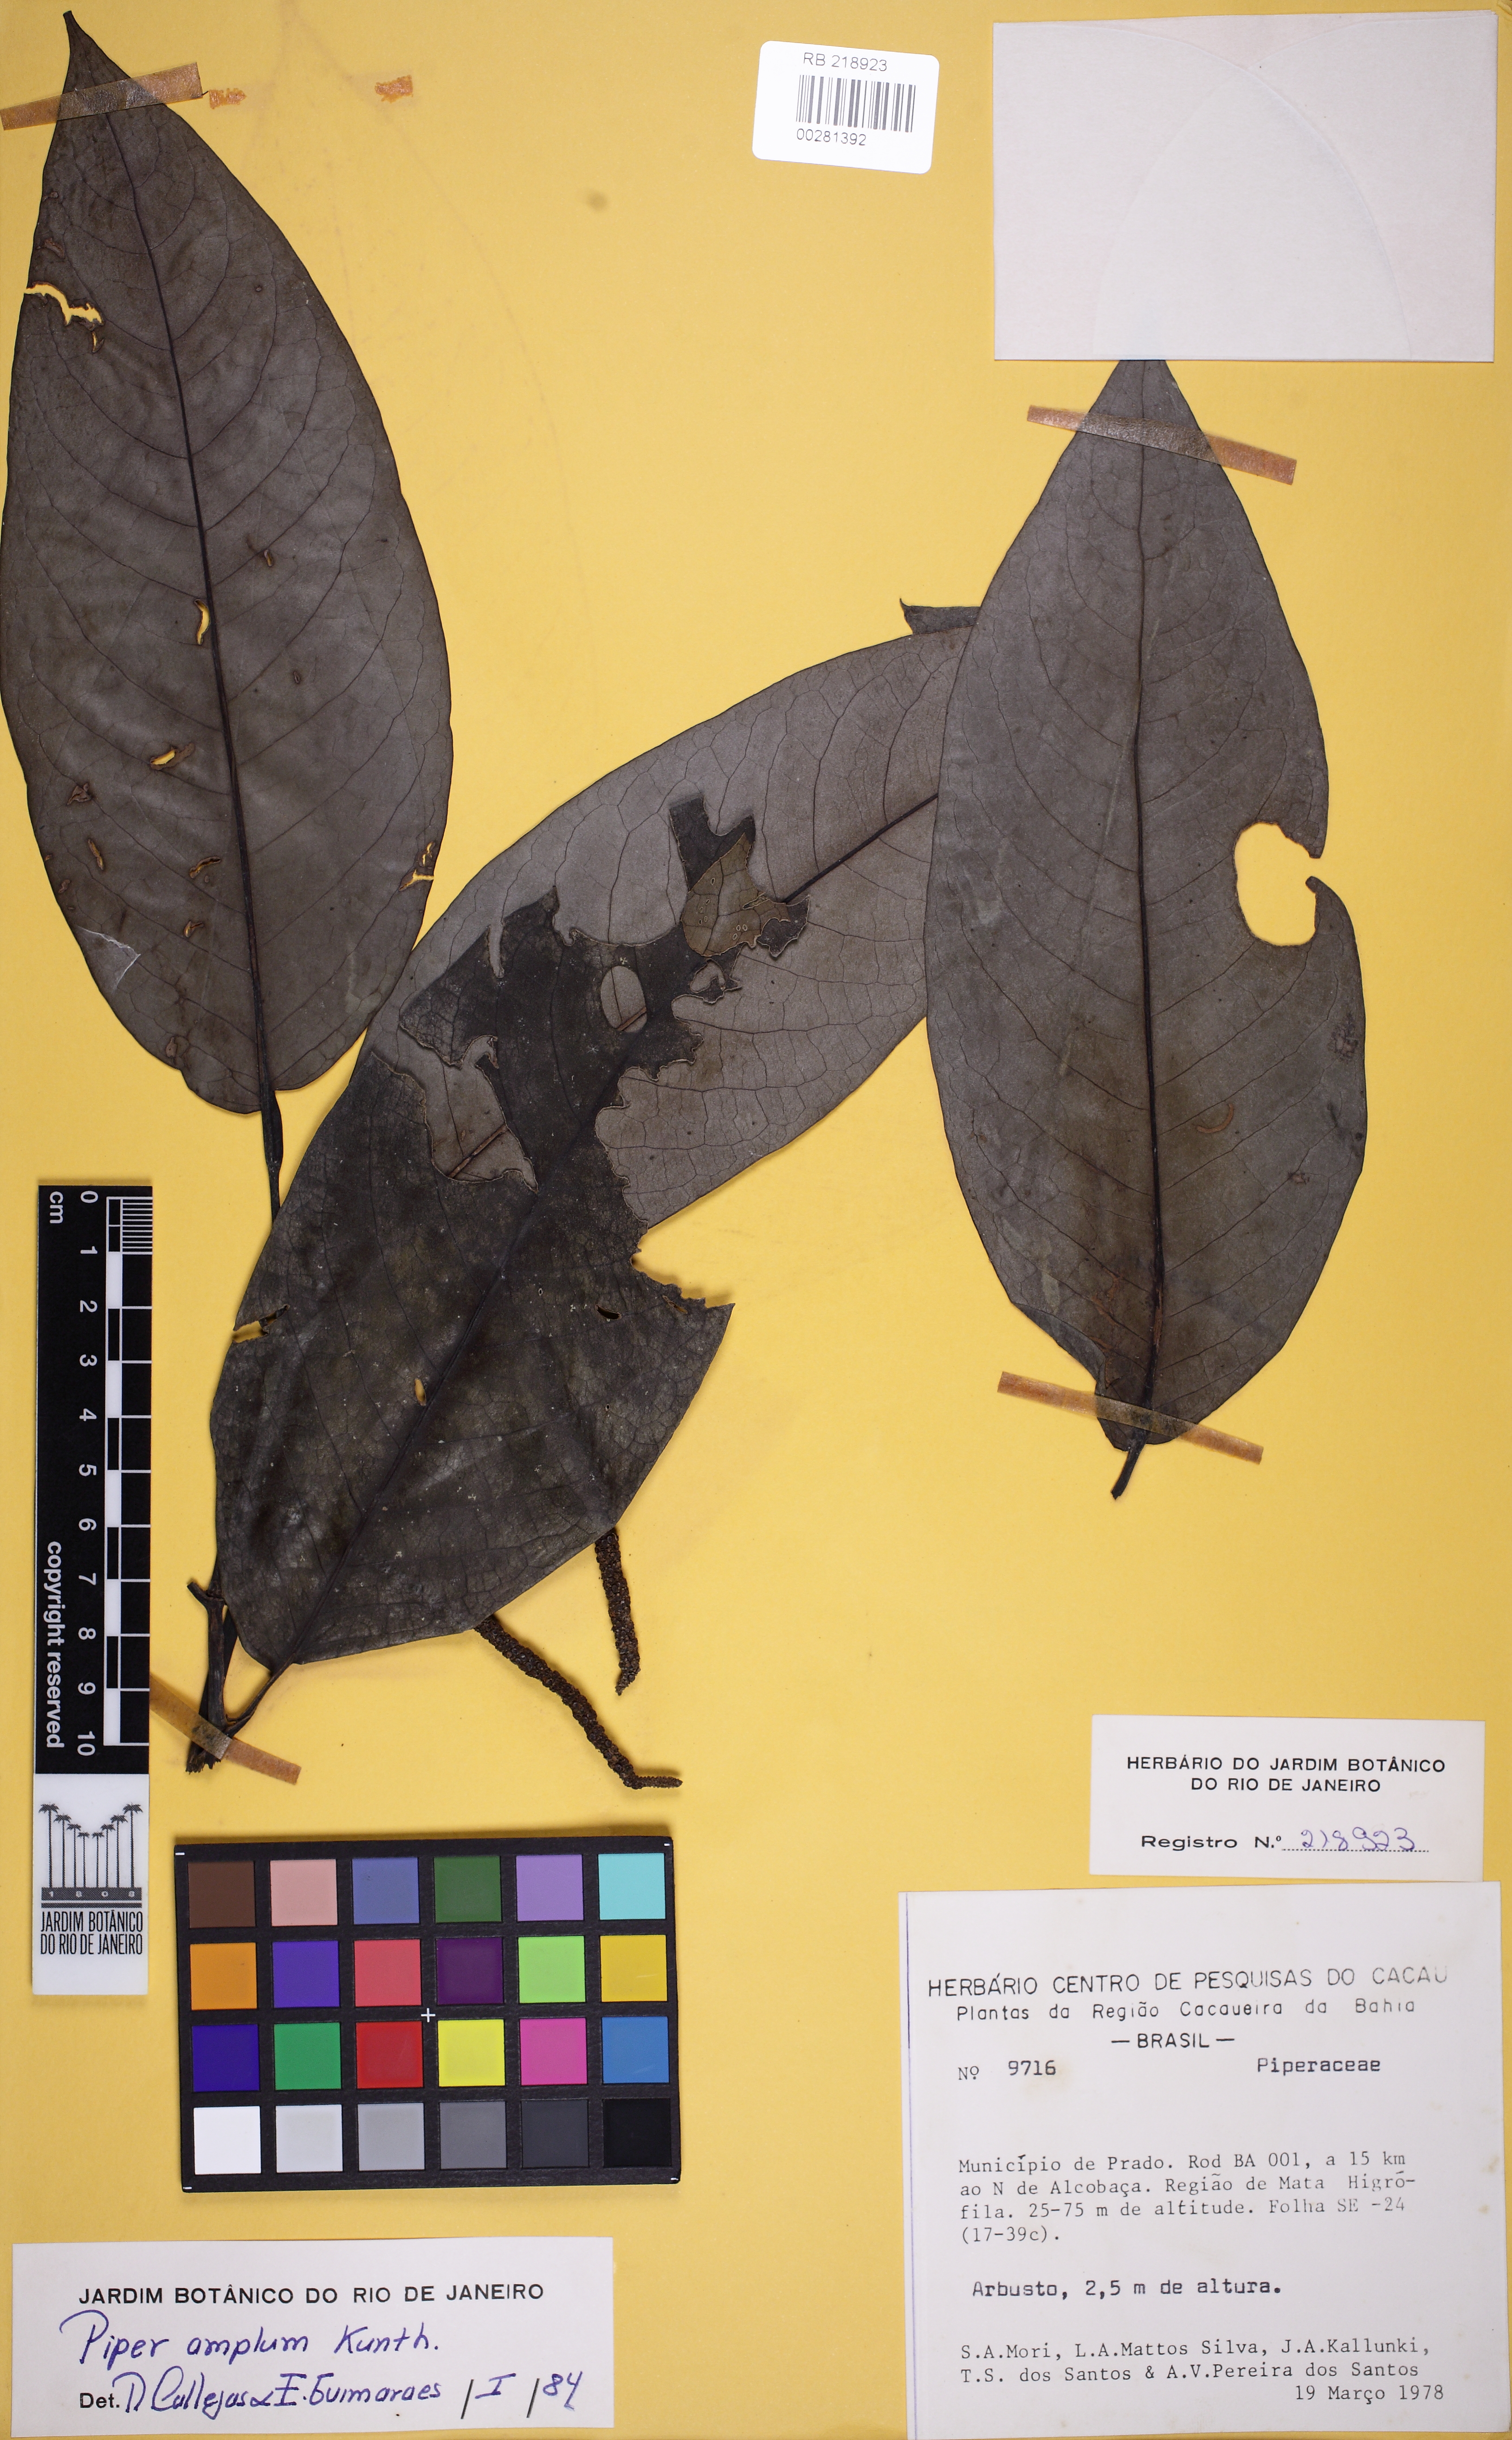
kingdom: Plantae
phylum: Tracheophyta
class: Magnoliopsida
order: Piperales
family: Piperaceae
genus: Piper
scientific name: Piper fluminense
